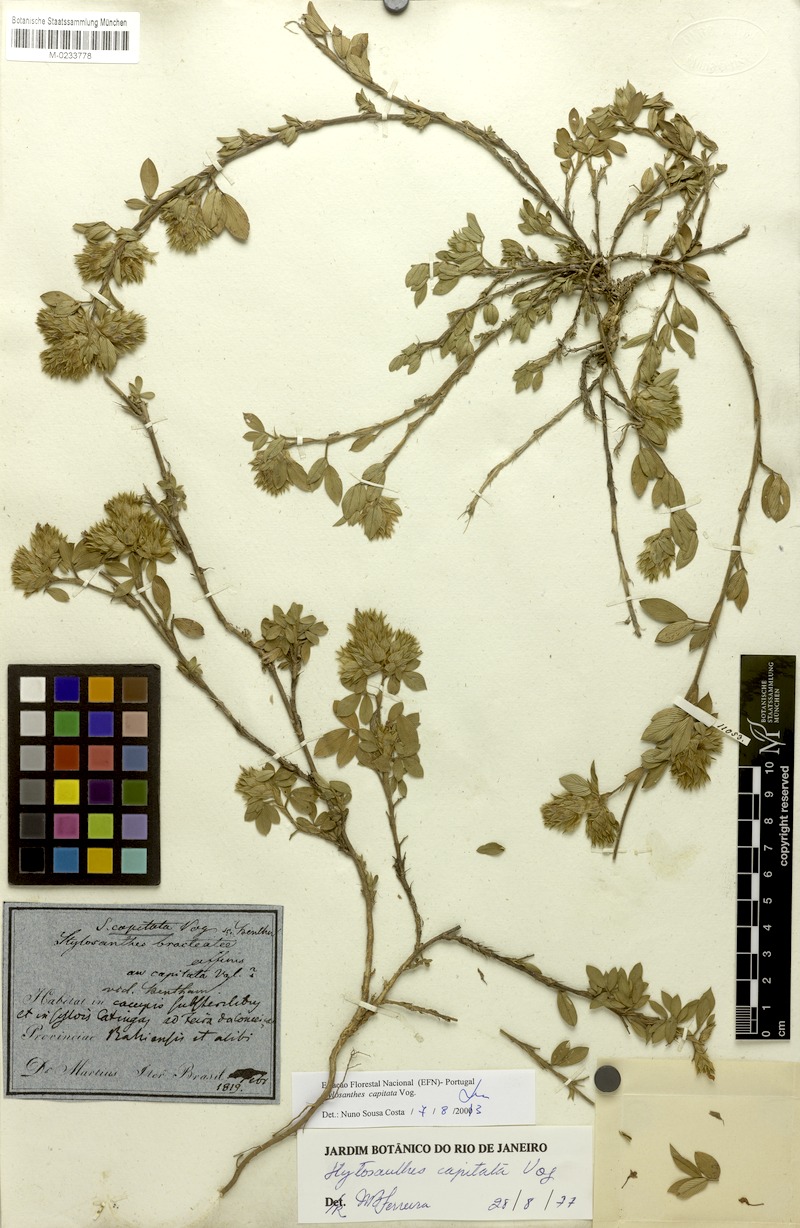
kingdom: Plantae
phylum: Tracheophyta
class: Magnoliopsida
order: Fabales
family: Fabaceae
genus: Stylosanthes
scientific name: Stylosanthes capitata
